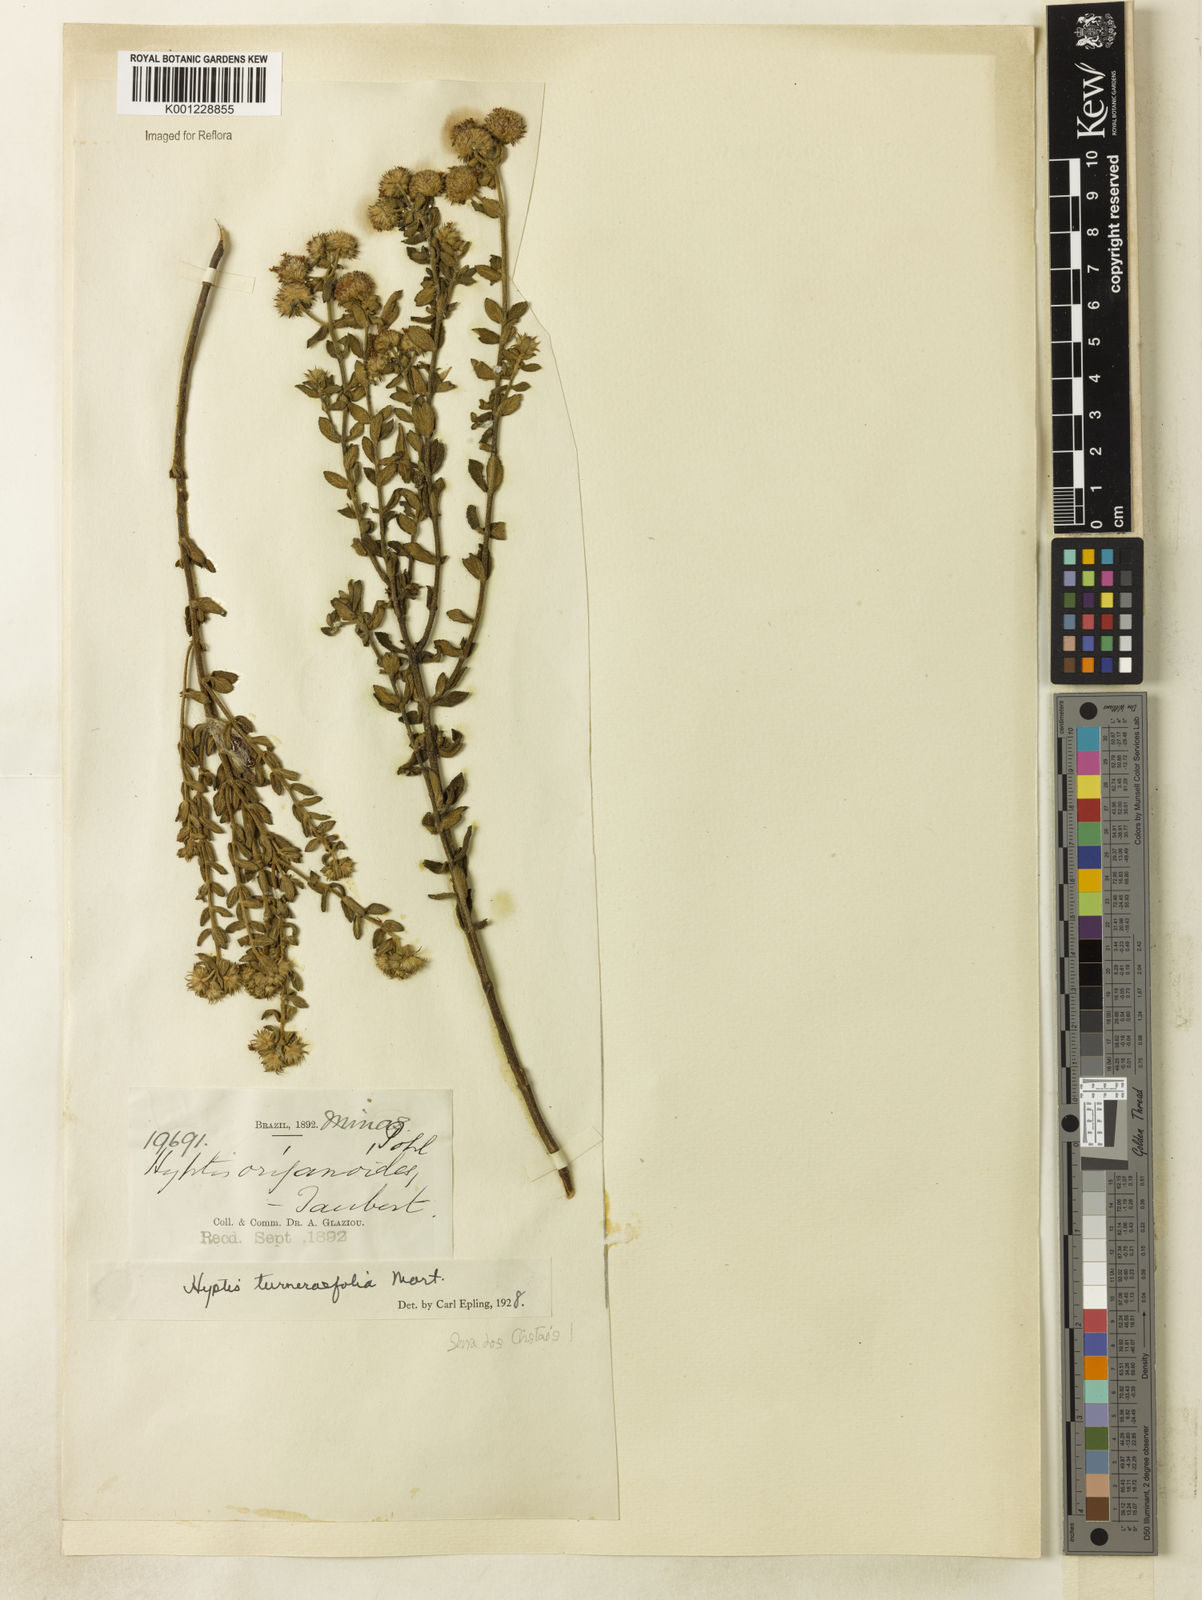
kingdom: Plantae
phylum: Tracheophyta
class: Magnoliopsida
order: Lamiales
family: Lamiaceae
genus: Hyptis
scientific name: Hyptis turnerifolia
